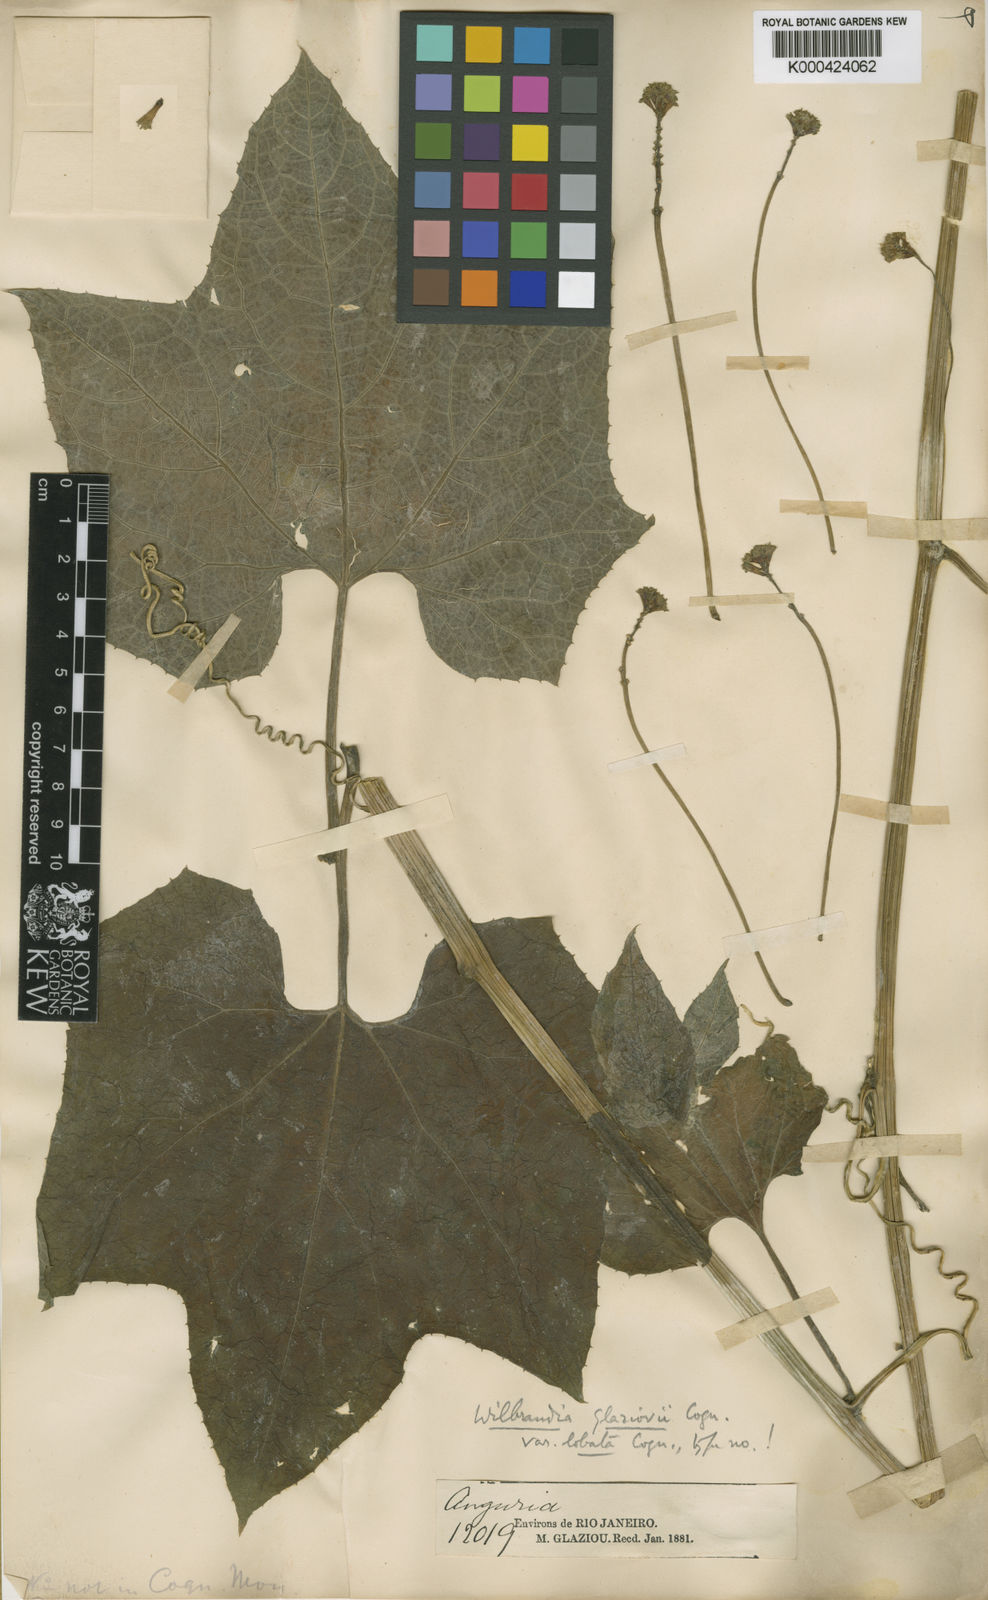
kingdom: Plantae
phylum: Tracheophyta
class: Magnoliopsida
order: Cucurbitales
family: Cucurbitaceae
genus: Wilbrandia
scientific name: Wilbrandia glaziovii
